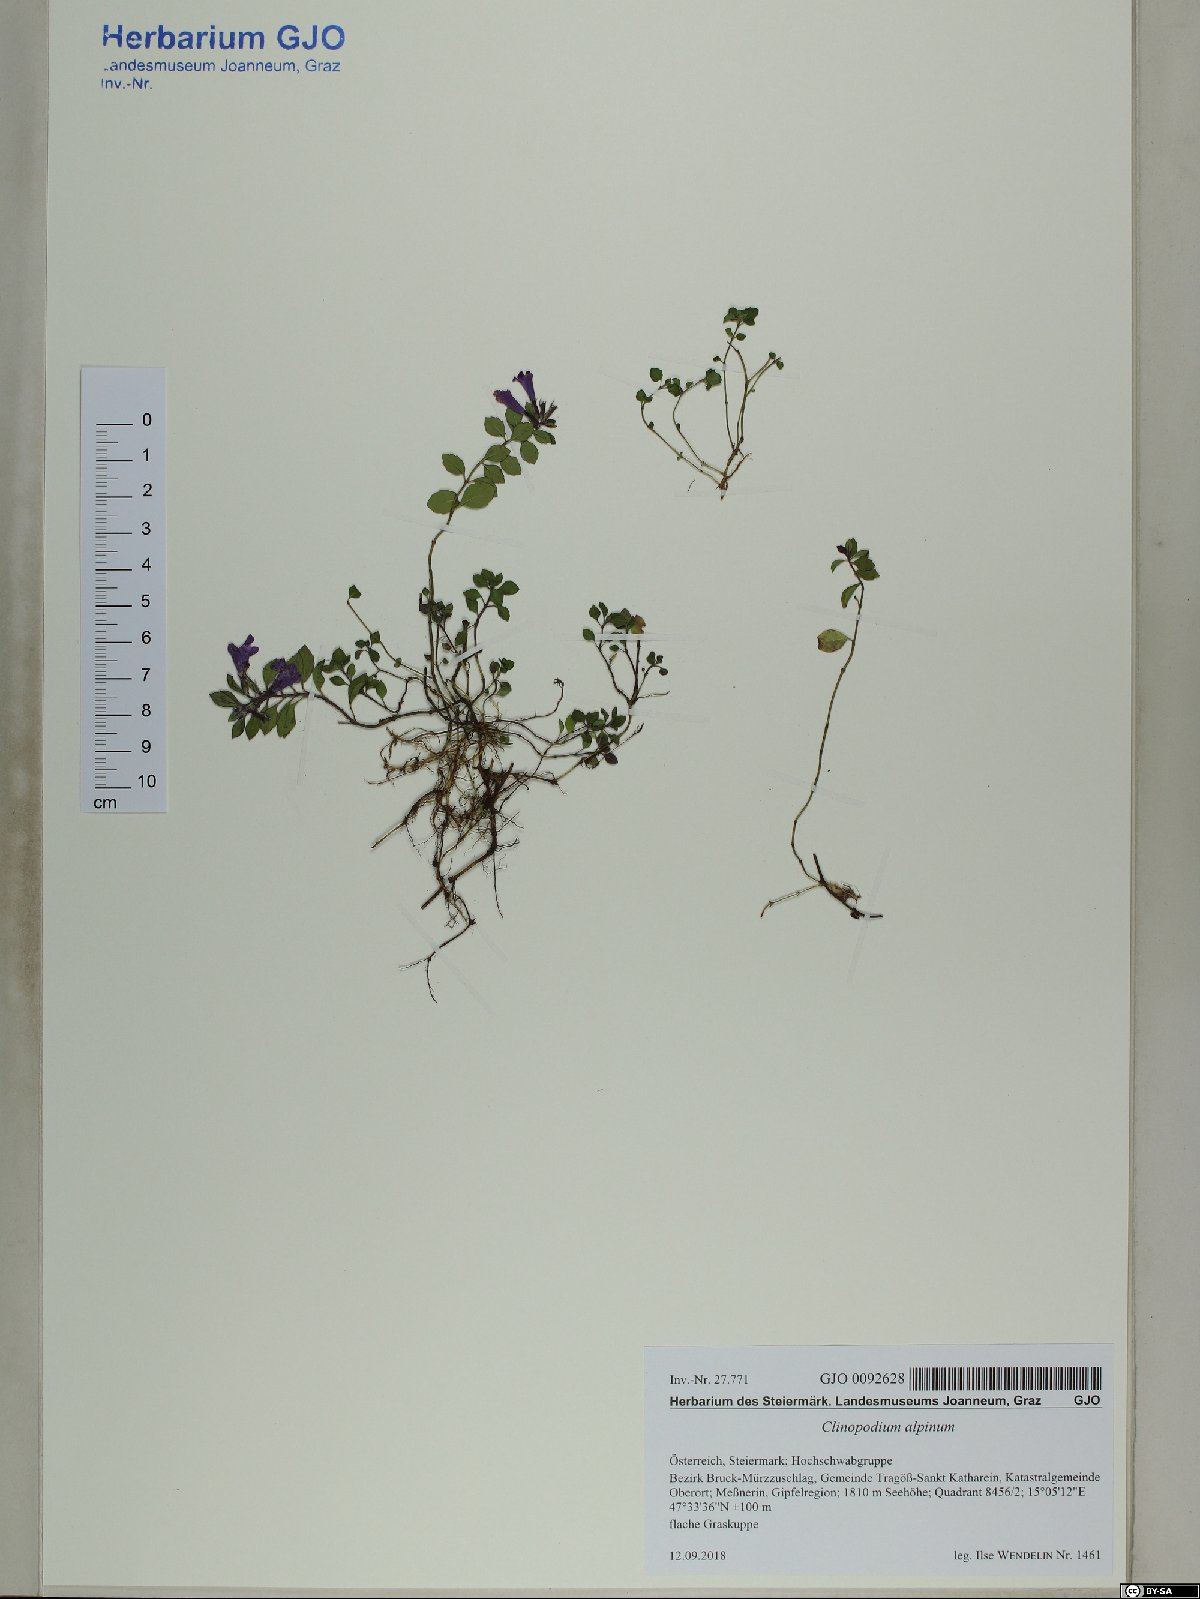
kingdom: Plantae
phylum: Tracheophyta
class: Magnoliopsida
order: Lamiales
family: Lamiaceae
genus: Clinopodium
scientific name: Clinopodium alpinum
